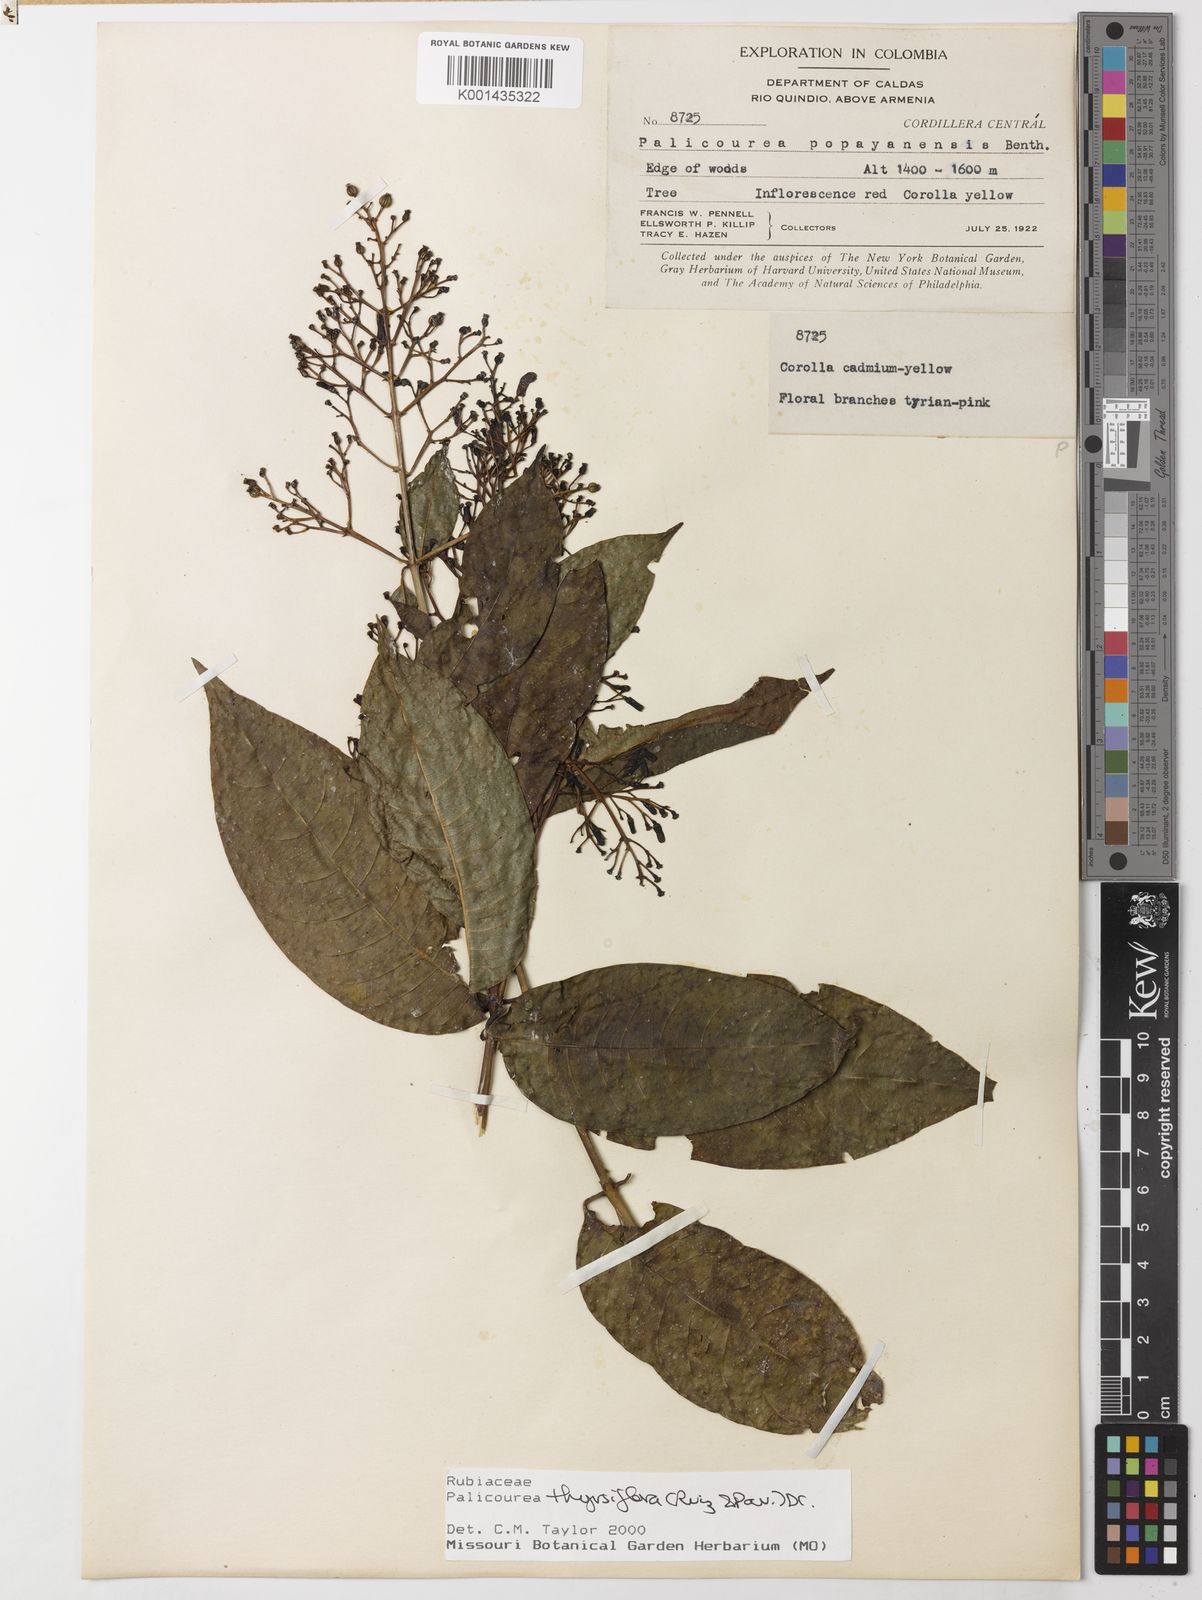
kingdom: Plantae
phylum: Tracheophyta
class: Magnoliopsida
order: Gentianales
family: Rubiaceae
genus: Palicourea
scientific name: Palicourea thyrsiflora
